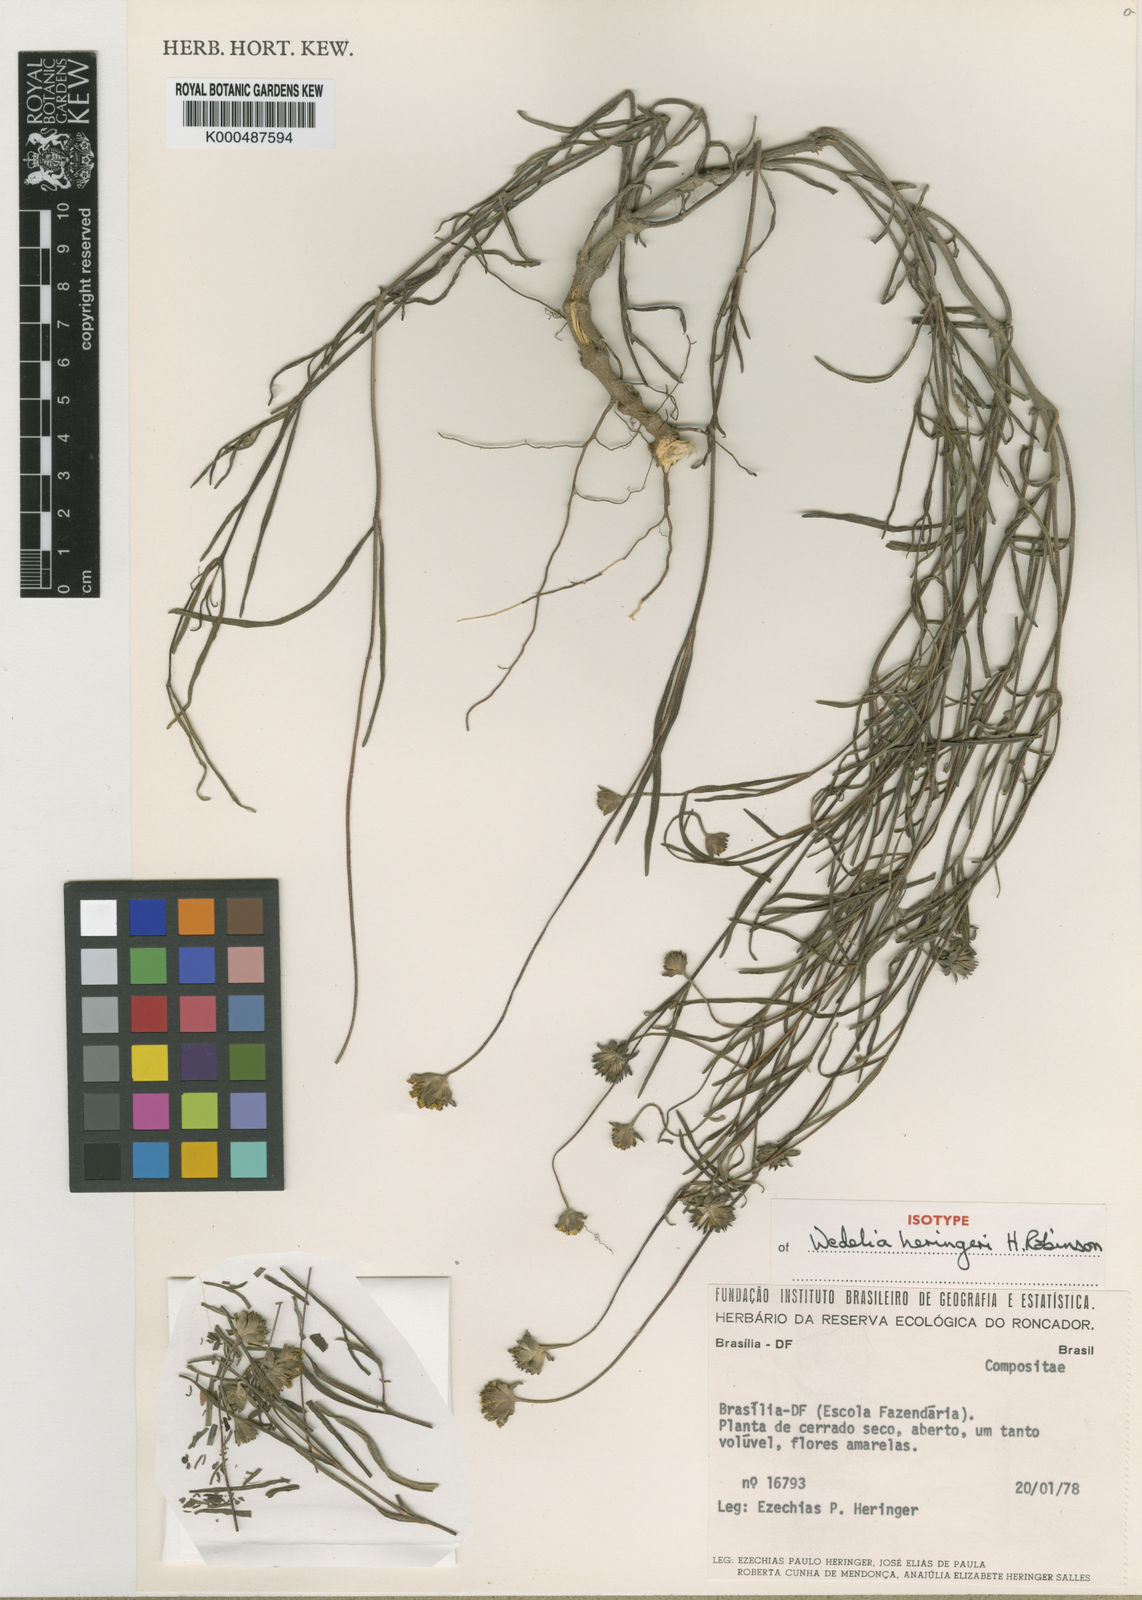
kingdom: Plantae
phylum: Tracheophyta
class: Magnoliopsida
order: Asterales
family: Asteraceae
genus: Wedelia
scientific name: Wedelia heringeri
